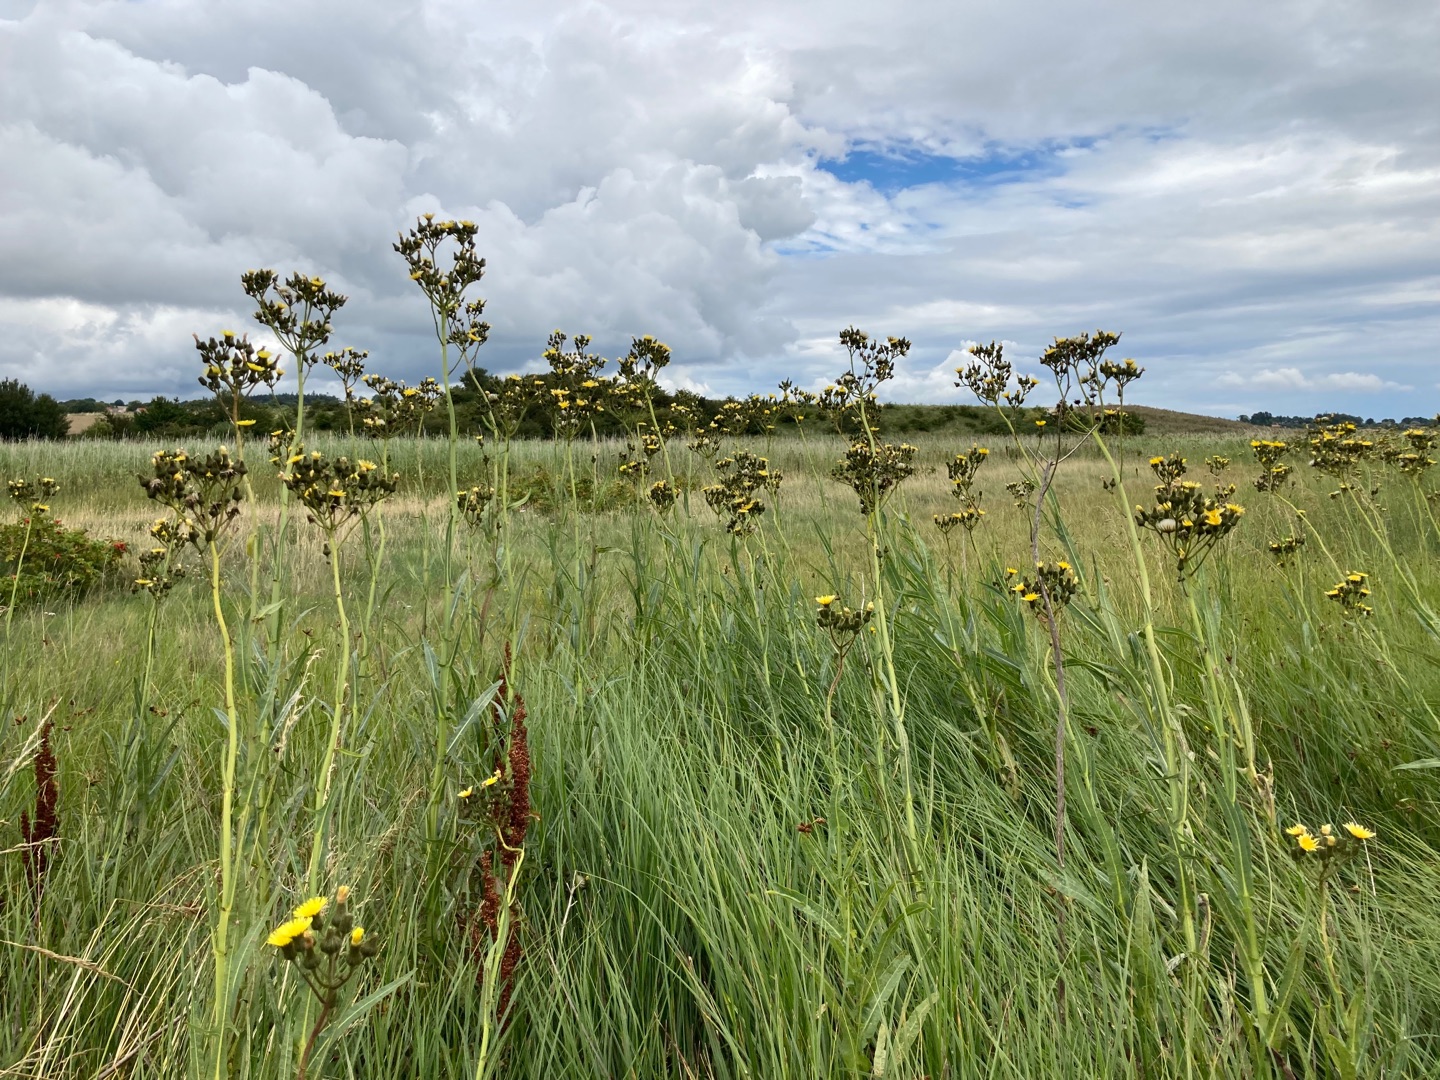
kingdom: Plantae
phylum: Tracheophyta
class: Magnoliopsida
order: Asterales
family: Asteraceae
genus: Sonchus
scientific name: Sonchus palustris
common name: Kær-svinemælk
